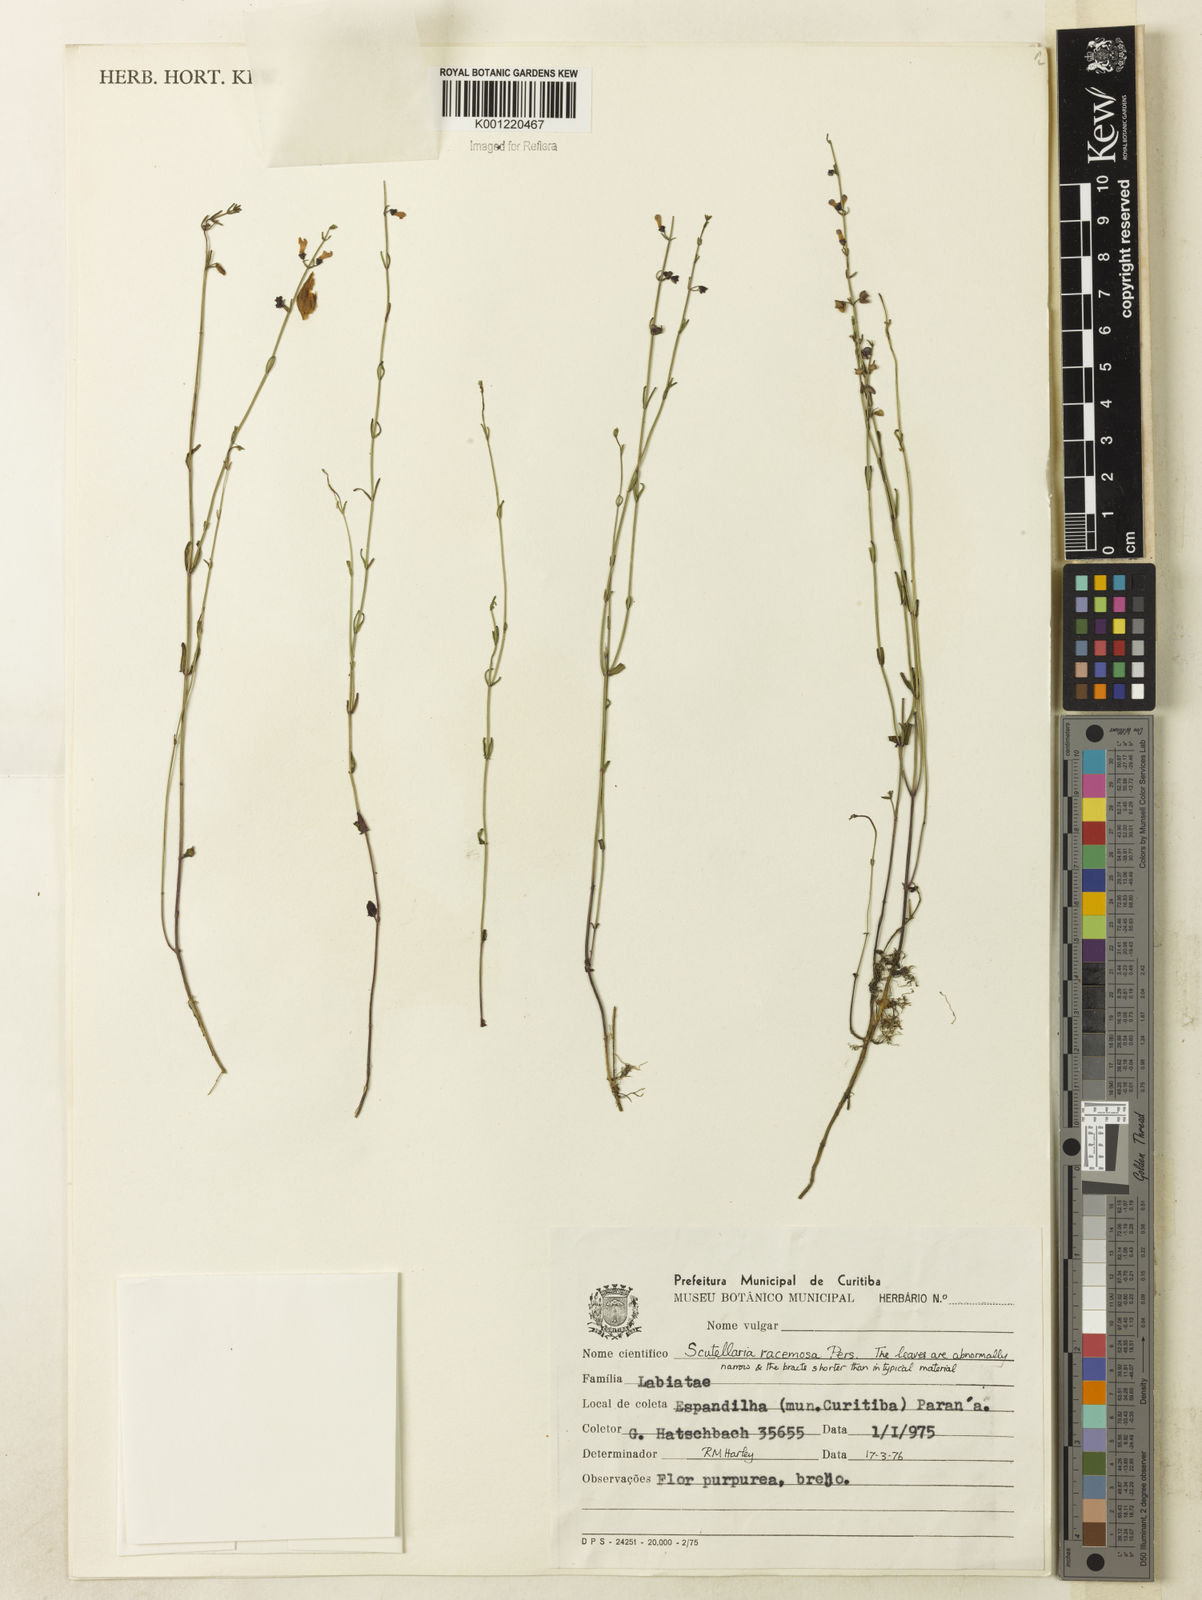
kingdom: Plantae
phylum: Tracheophyta
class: Magnoliopsida
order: Lamiales
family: Lamiaceae
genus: Scutellaria
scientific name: Scutellaria racemosa
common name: South american skullcap
